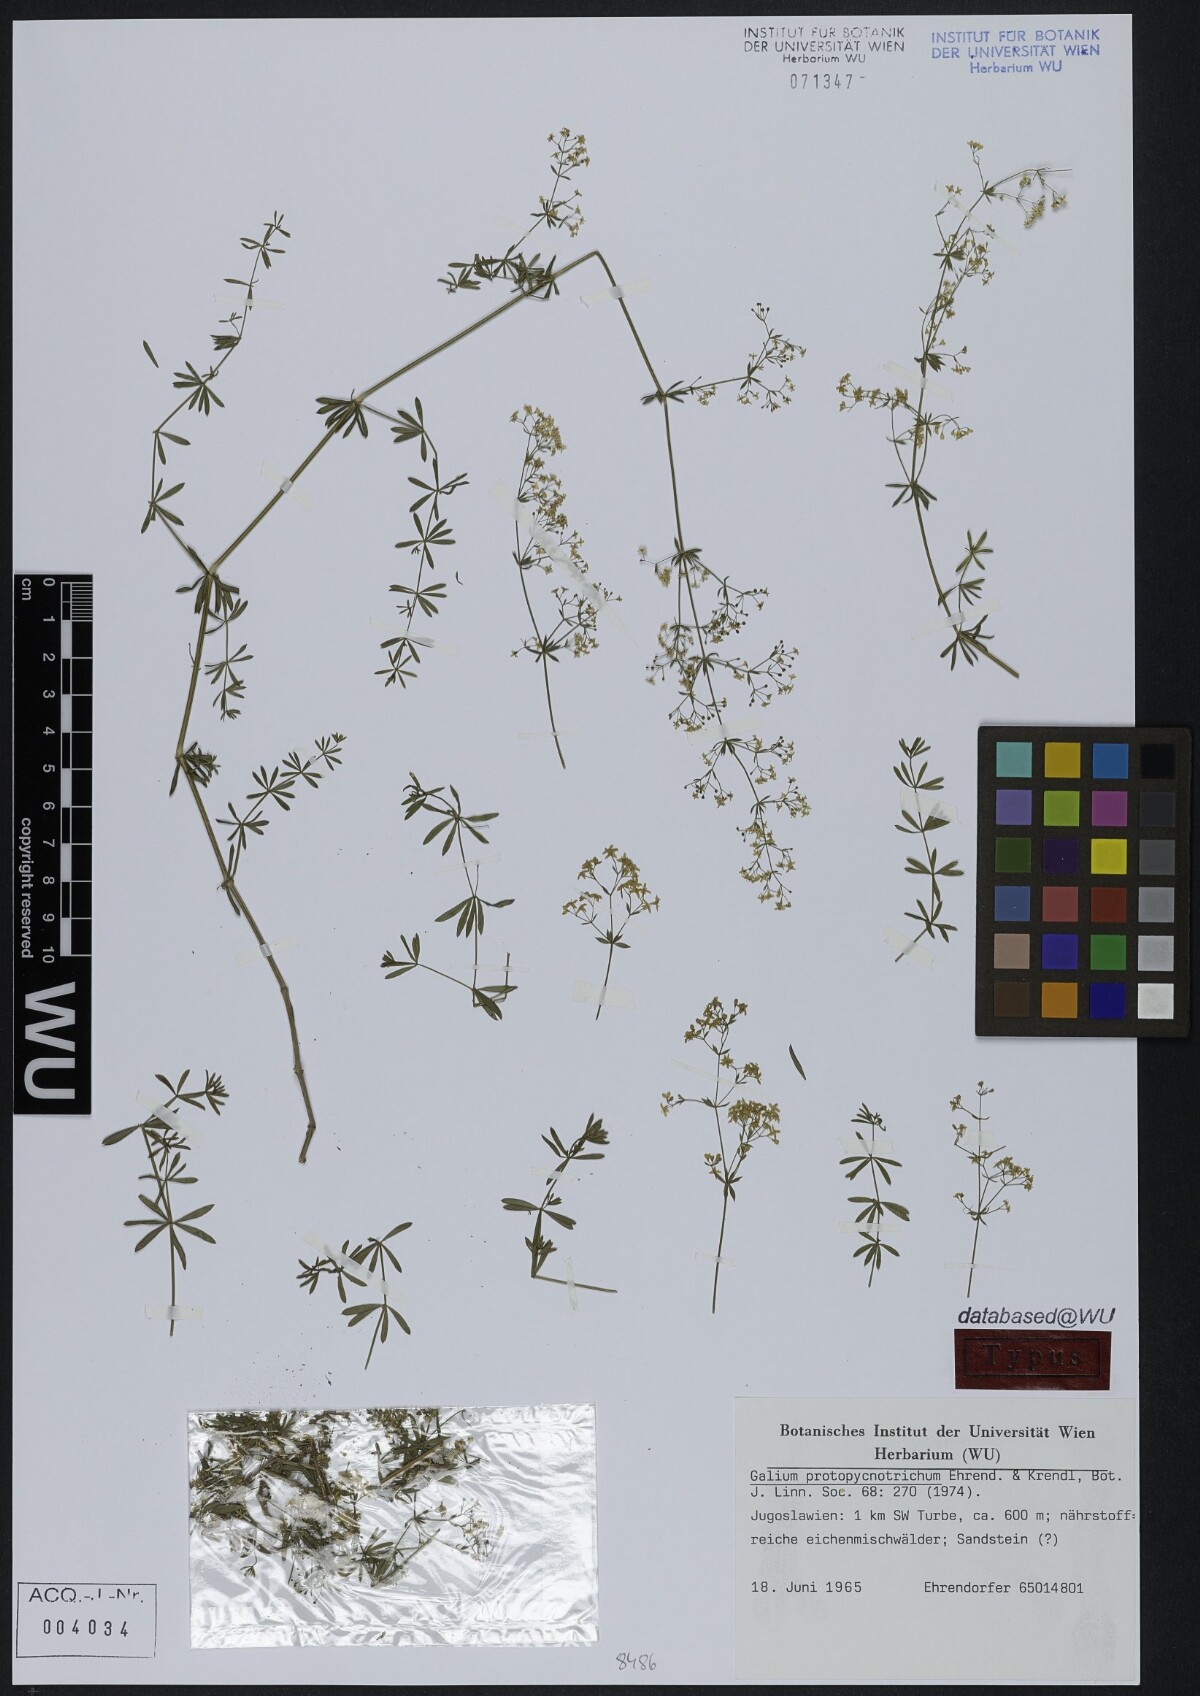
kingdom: Plantae
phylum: Tracheophyta
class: Magnoliopsida
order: Gentianales
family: Rubiaceae
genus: Galium
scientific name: Galium lovcense
